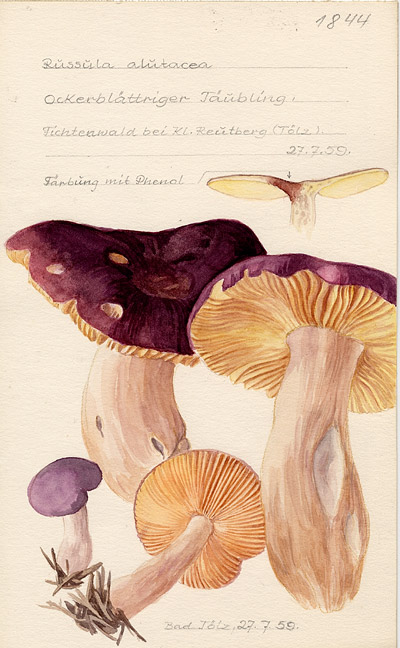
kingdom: Fungi
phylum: Basidiomycota
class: Agaricomycetes
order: Russulales
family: Russulaceae
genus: Russula
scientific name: Russula alutacea
